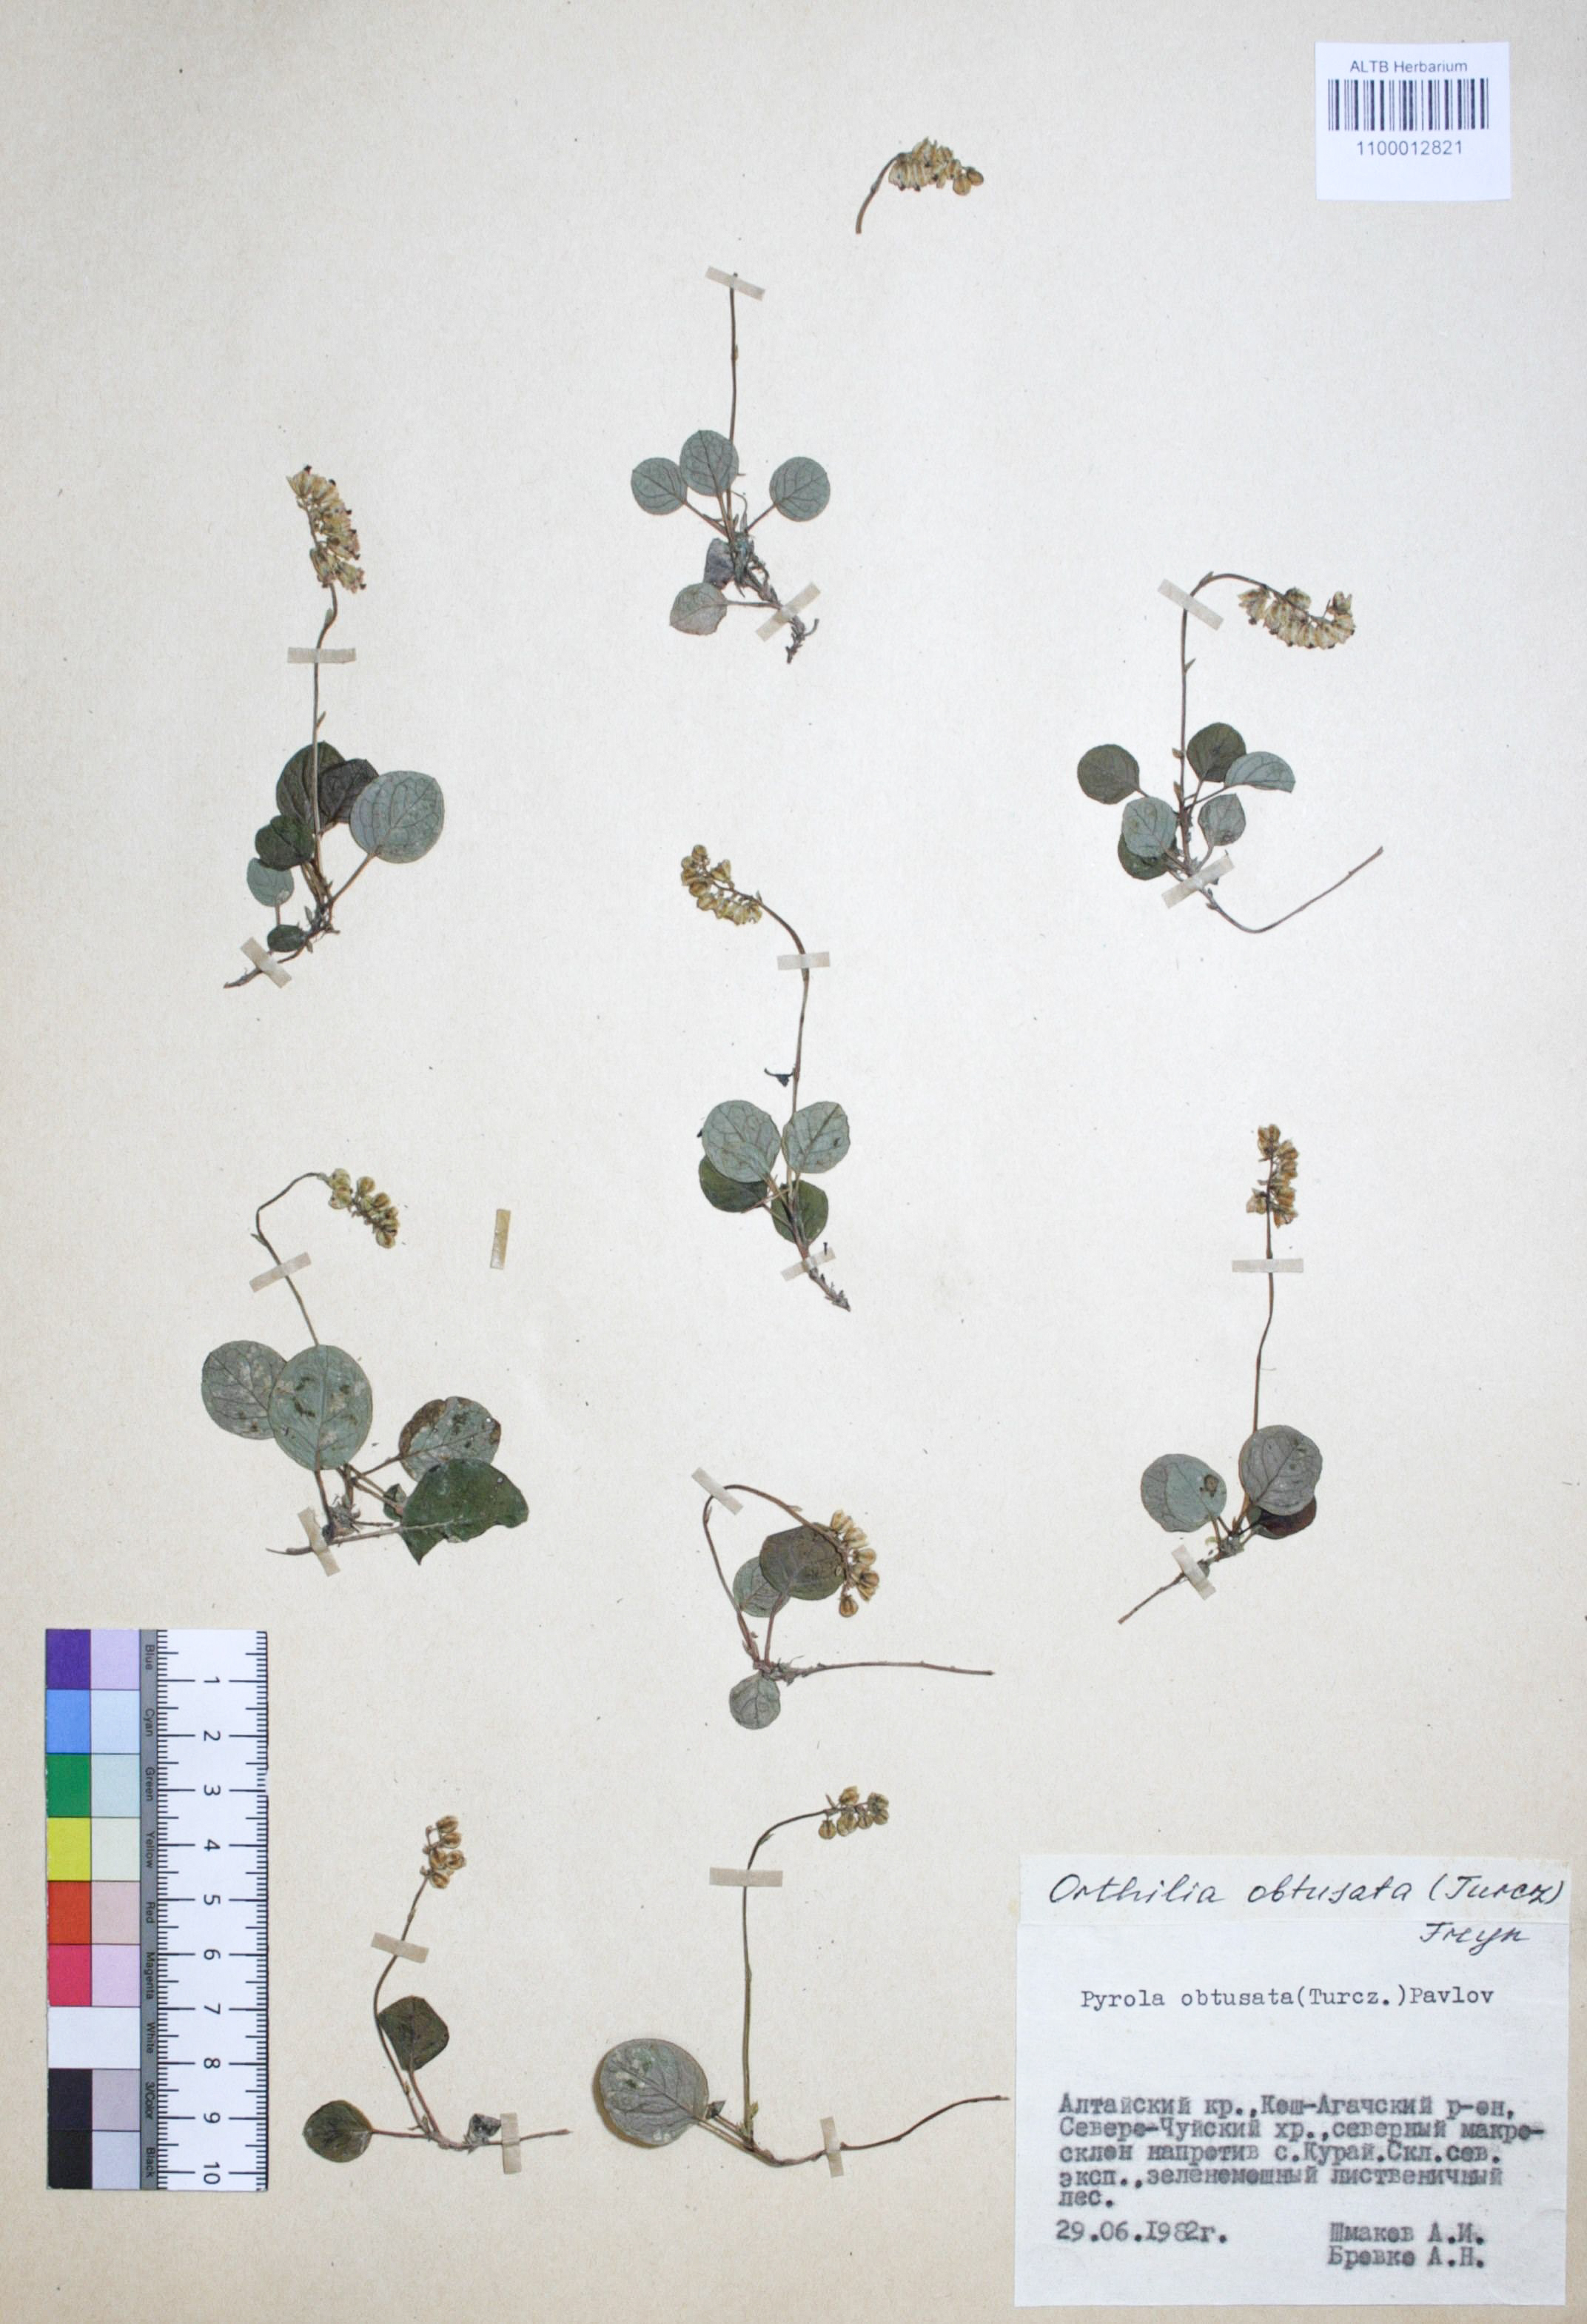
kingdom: Plantae
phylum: Tracheophyta
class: Magnoliopsida
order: Ericales
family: Ericaceae
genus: Orthilia
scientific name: Orthilia secunda
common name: One-sided orthilia
